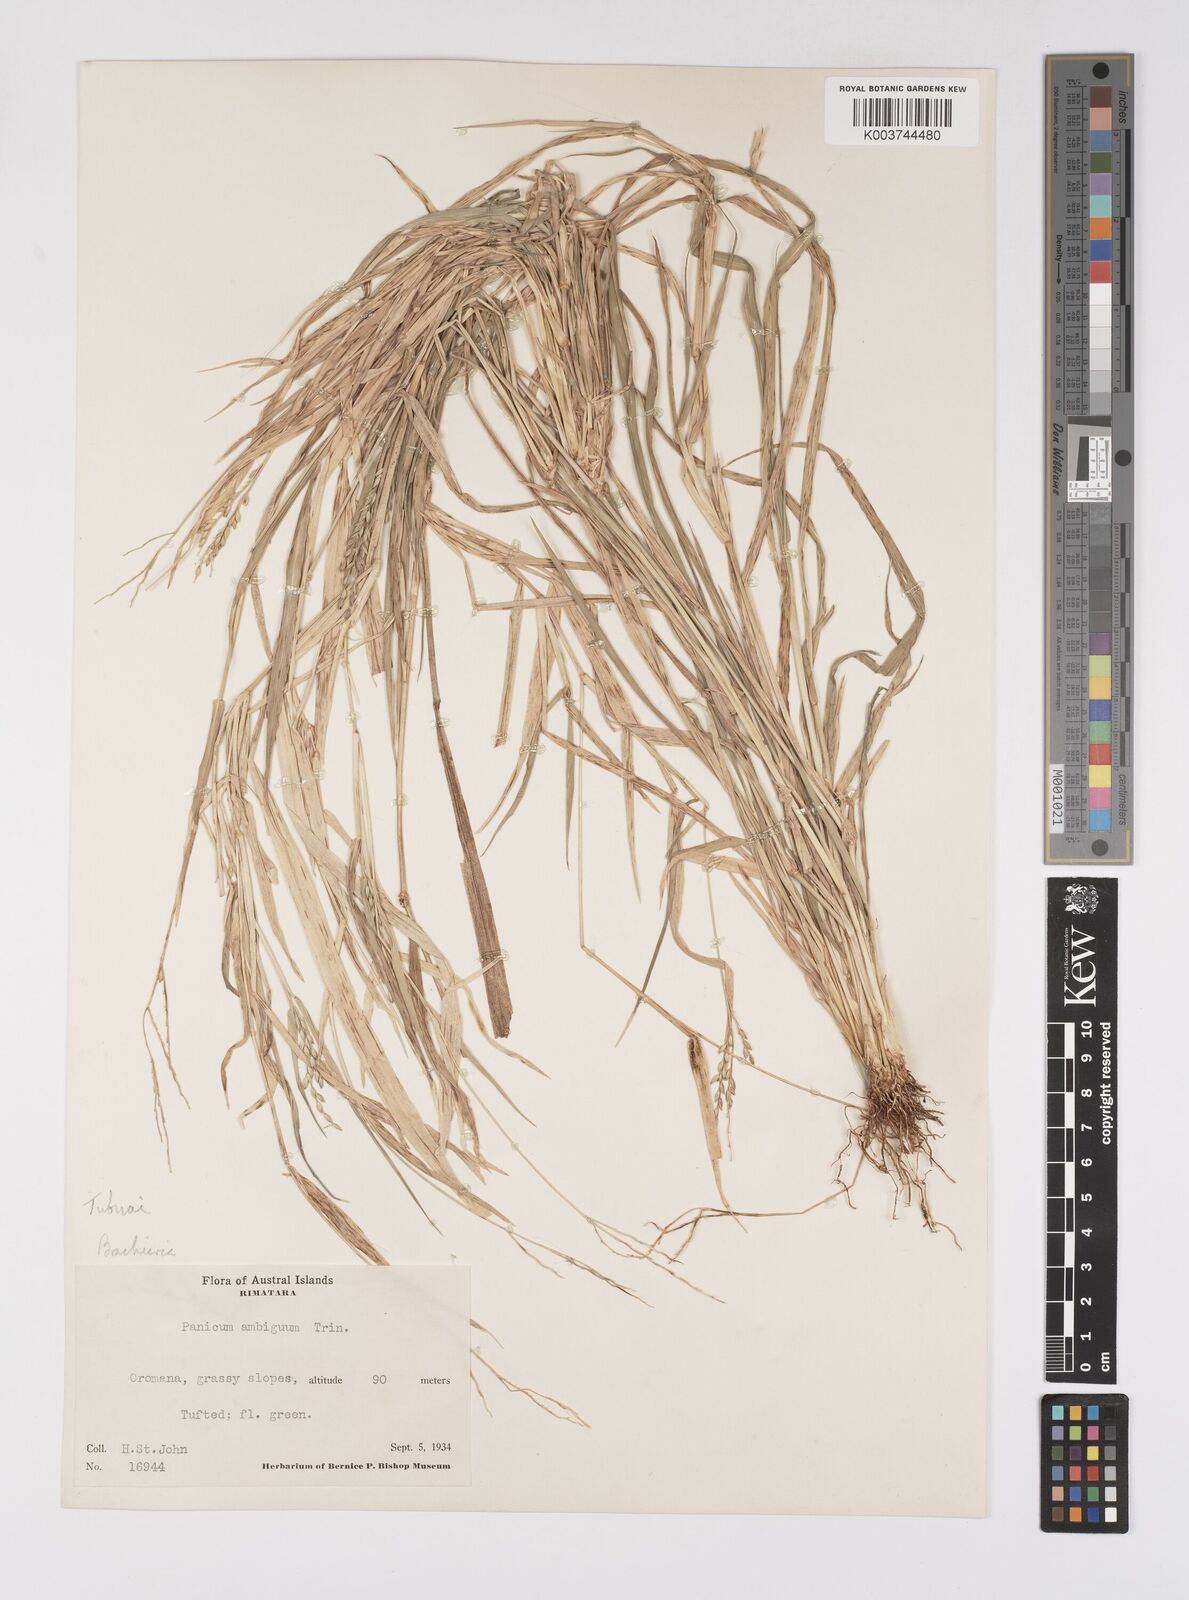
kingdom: Plantae
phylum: Tracheophyta
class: Liliopsida
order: Poales
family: Poaceae
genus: Urochloa
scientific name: Urochloa glumaris
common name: Thurston grass
